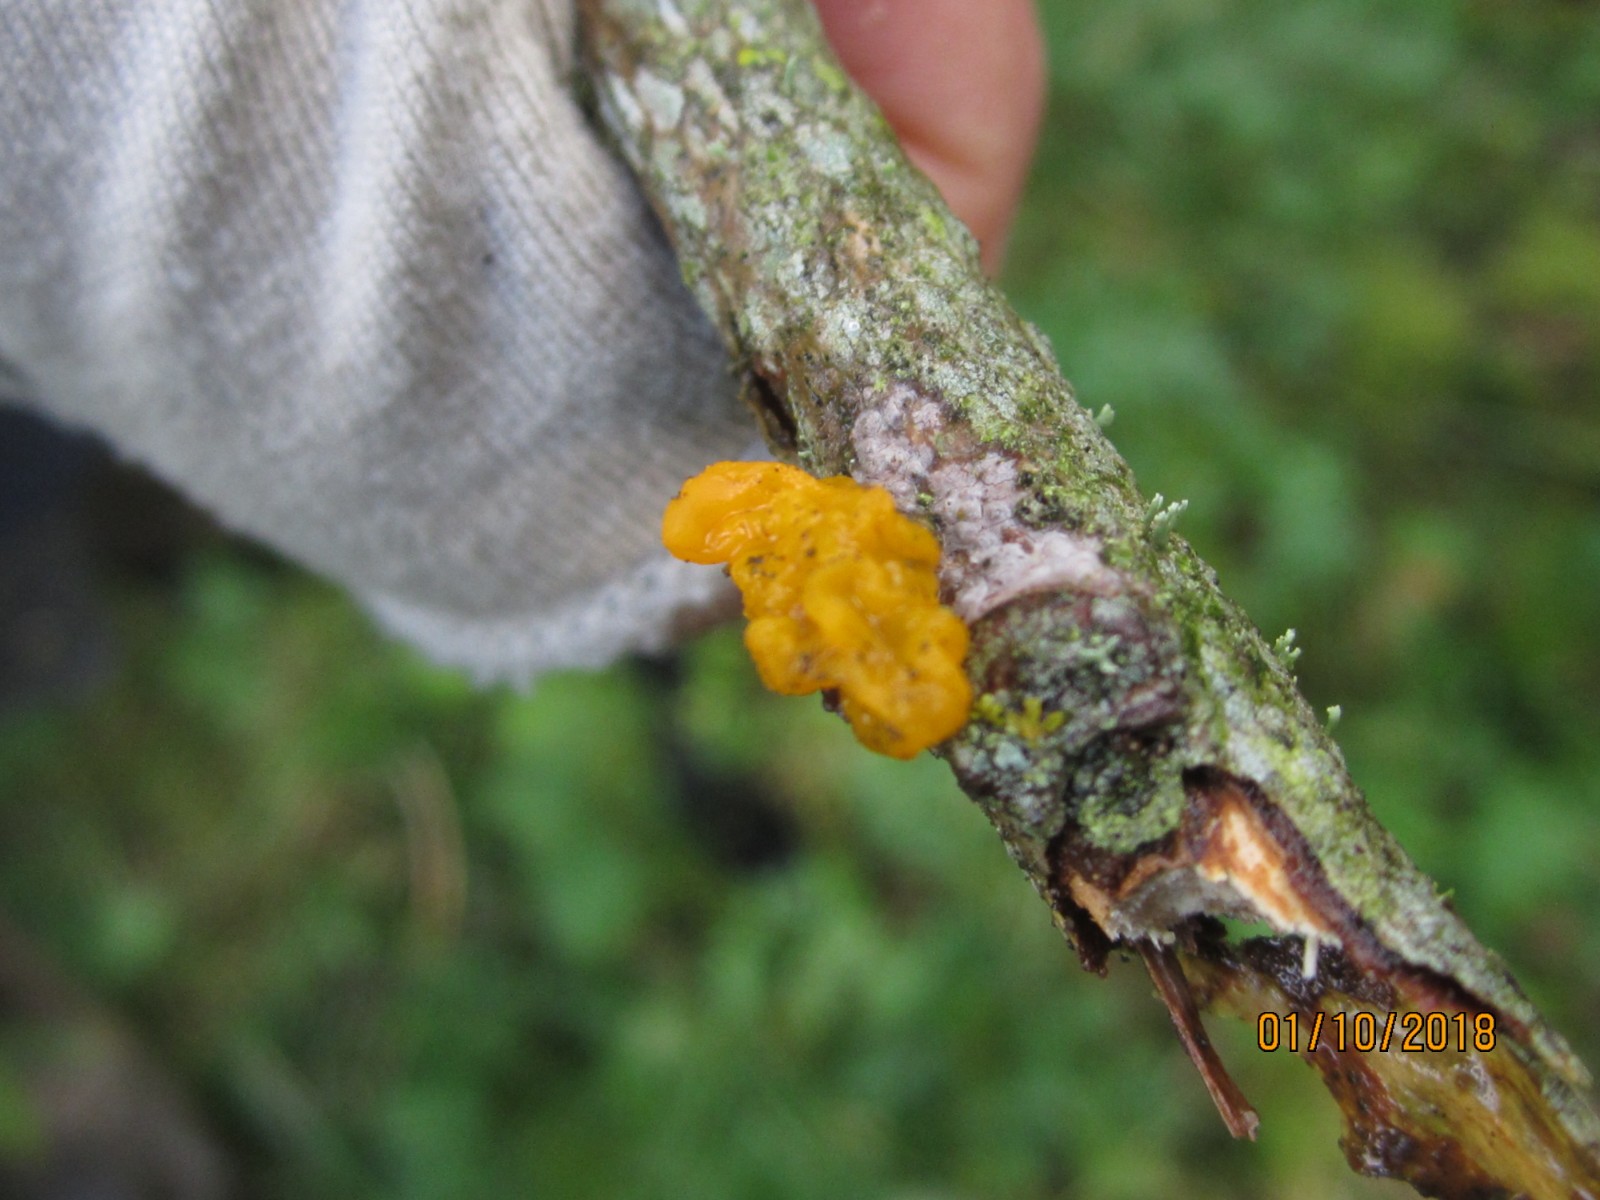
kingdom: Fungi
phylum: Basidiomycota
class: Tremellomycetes
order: Tremellales
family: Tremellaceae
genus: Tremella
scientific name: Tremella mesenterica
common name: gul bævresvamp
